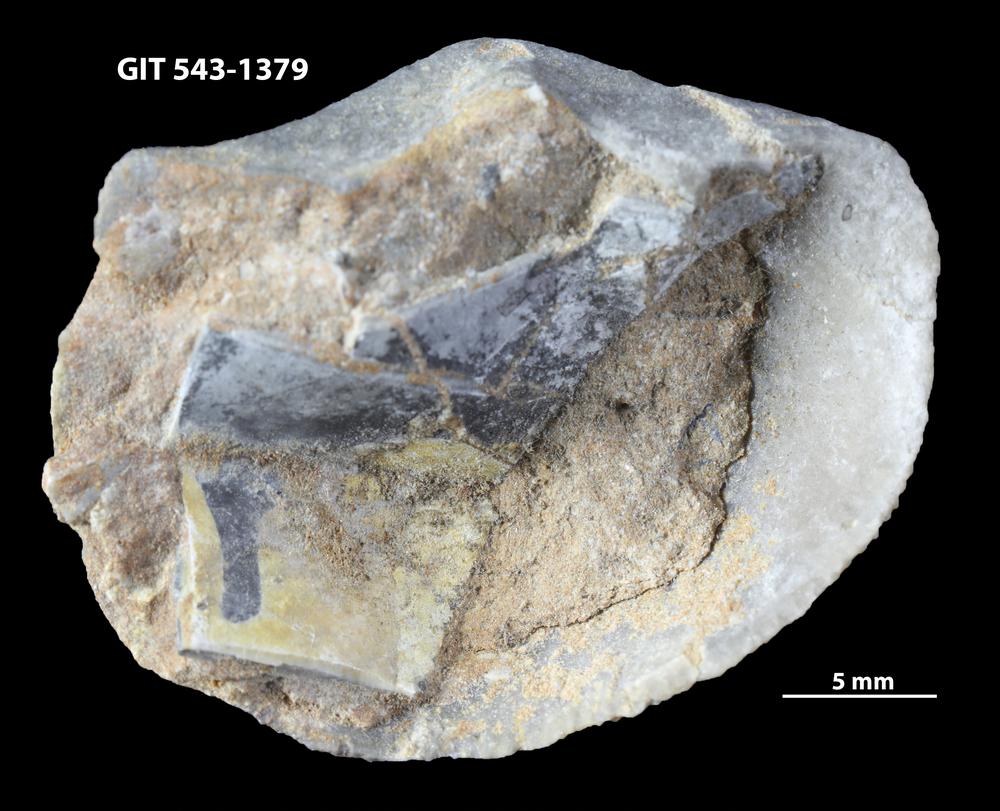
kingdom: Animalia
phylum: Brachiopoda
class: Rhynchonellata
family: Clitambonitidae
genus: Clitambonites
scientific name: Clitambonites Orthisina schmidti
